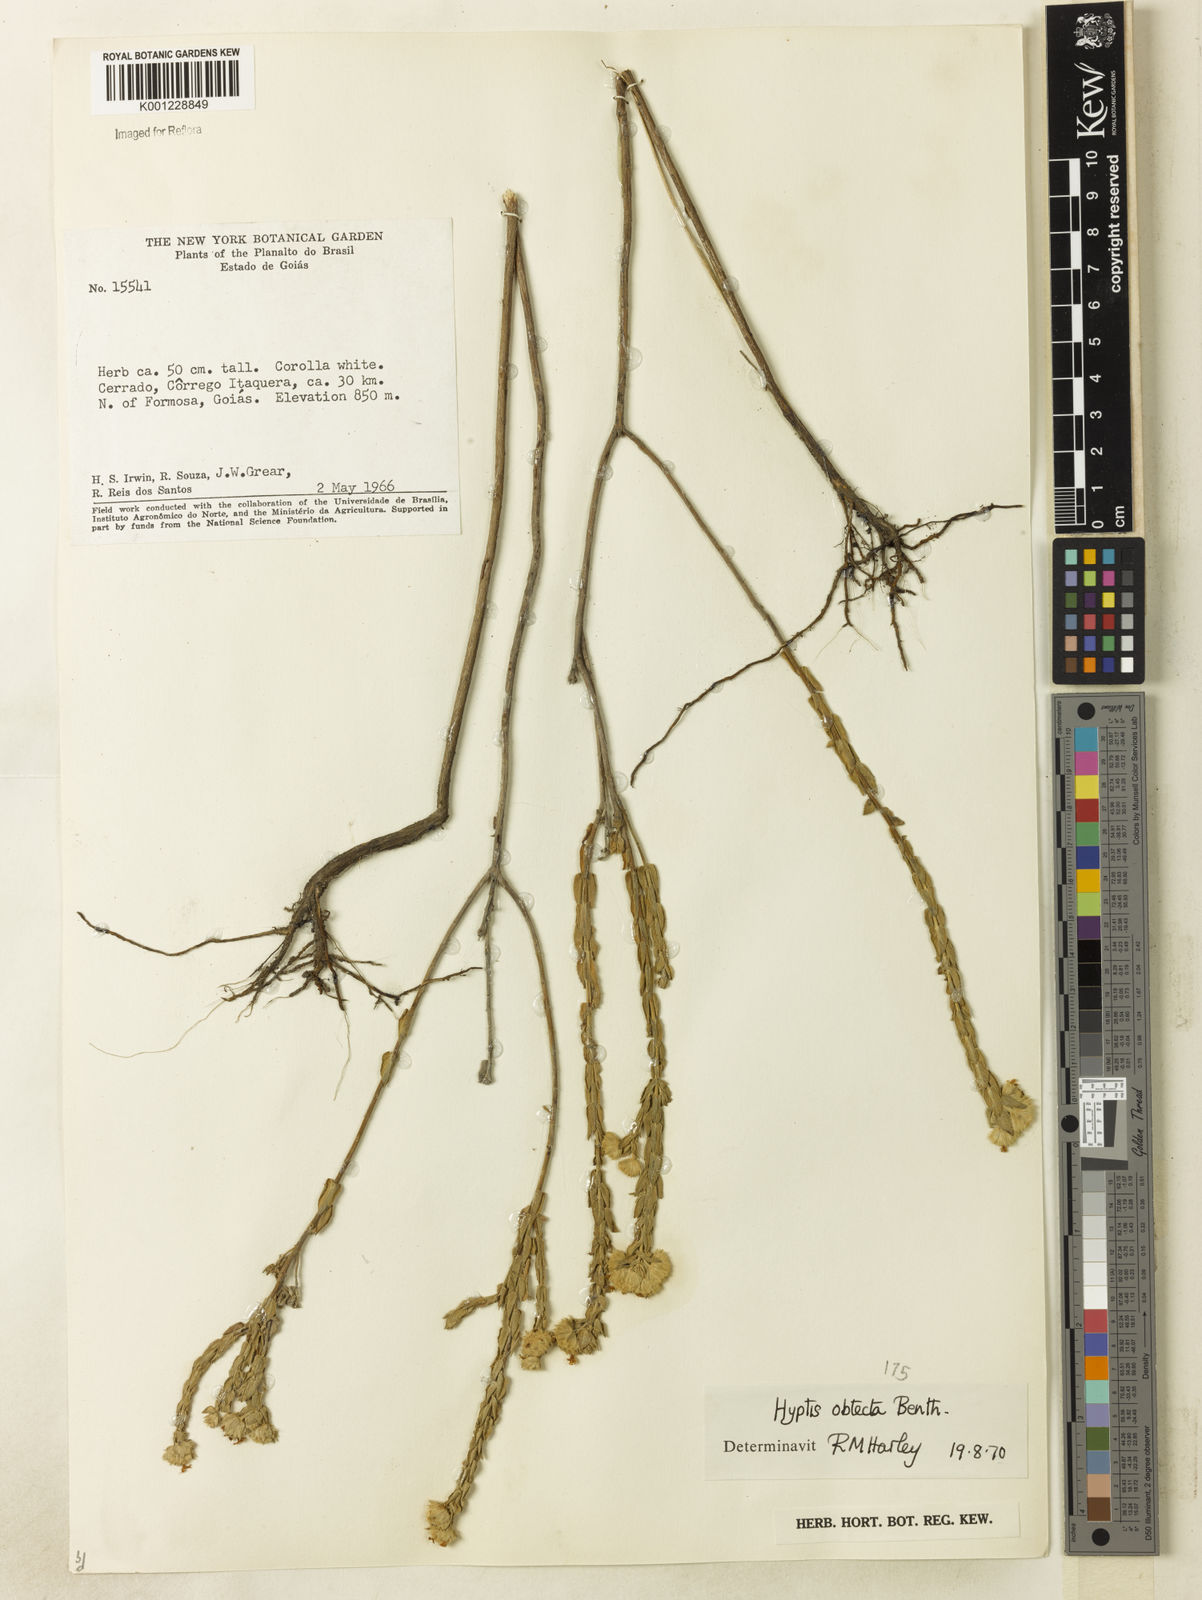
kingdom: Plantae
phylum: Tracheophyta
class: Magnoliopsida
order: Lamiales
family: Lamiaceae
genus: Hyptis
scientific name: Hyptis obtecta
